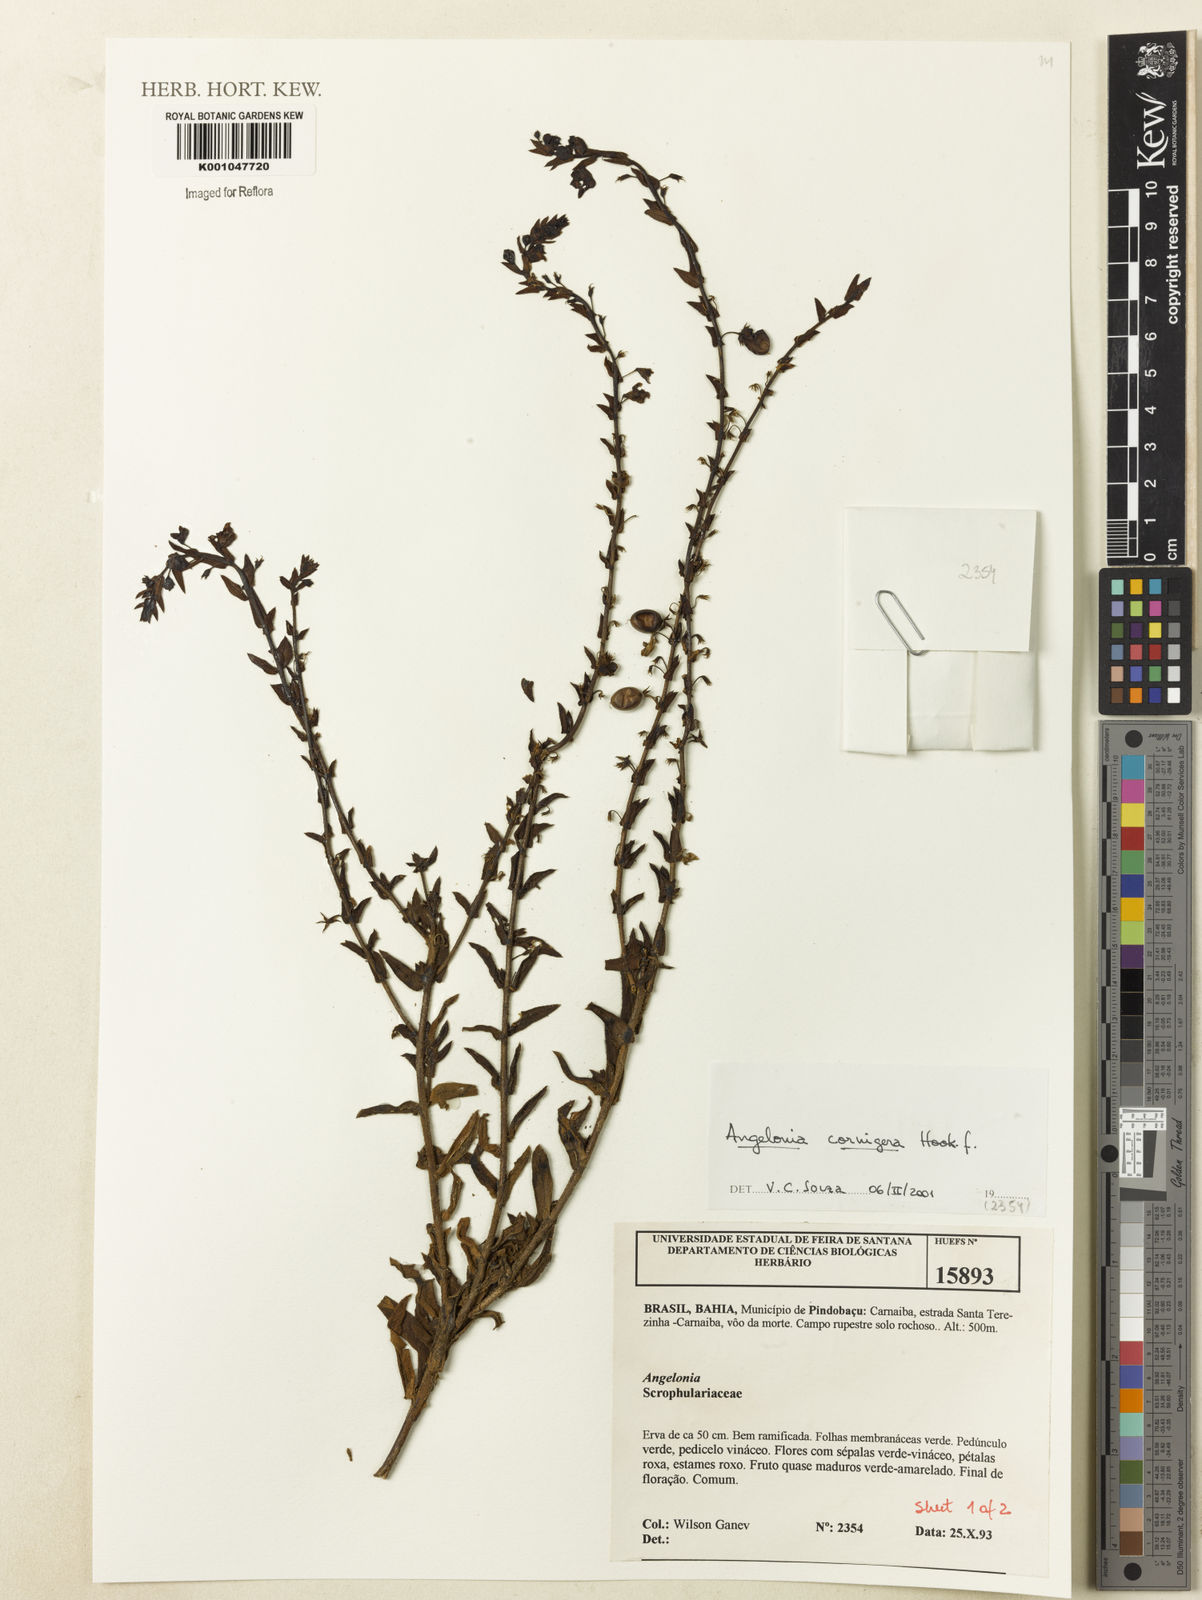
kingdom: Plantae
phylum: Tracheophyta
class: Magnoliopsida
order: Lamiales
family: Plantaginaceae
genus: Angelonia
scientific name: Angelonia cornigera
